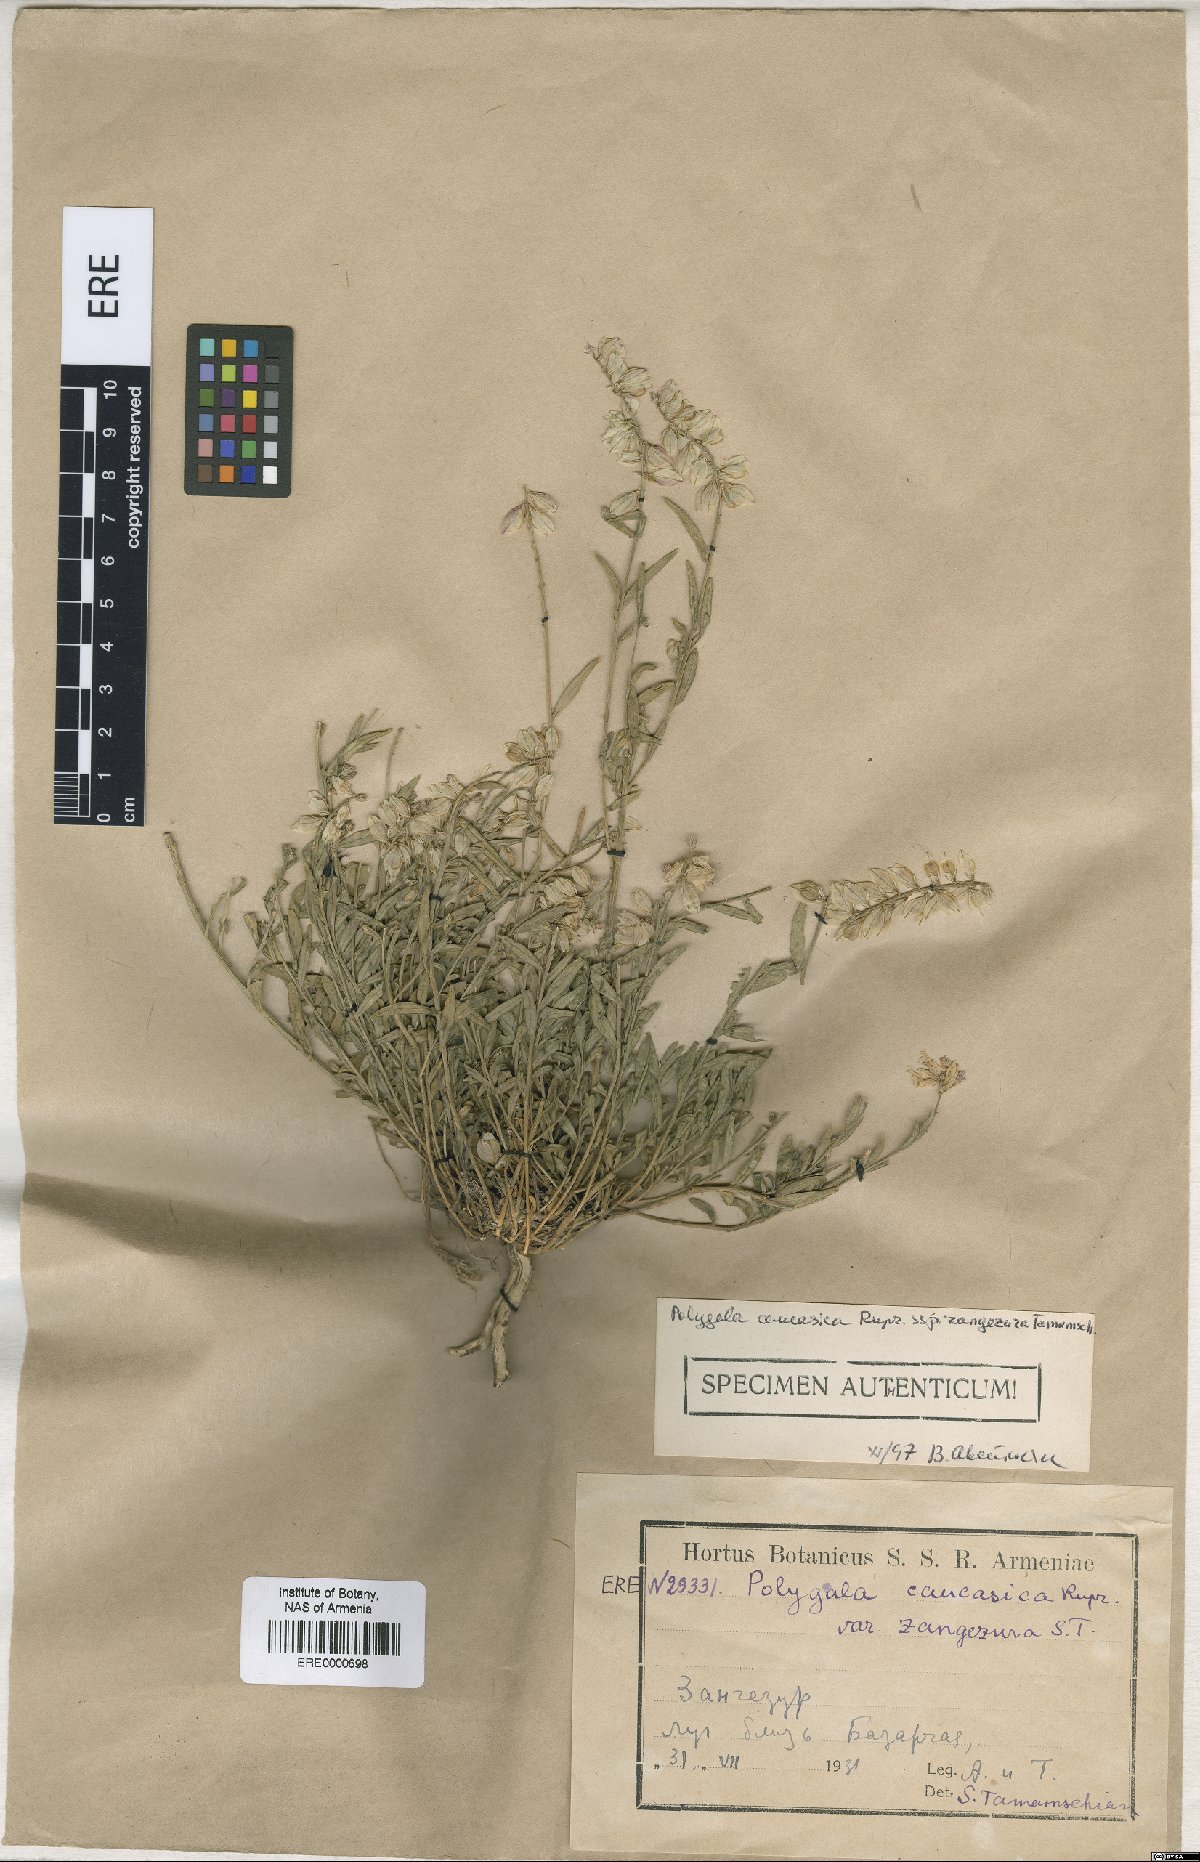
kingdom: Plantae
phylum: Tracheophyta
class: Magnoliopsida
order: Fabales
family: Polygalaceae
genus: Polygala
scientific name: Polygala caucasica
